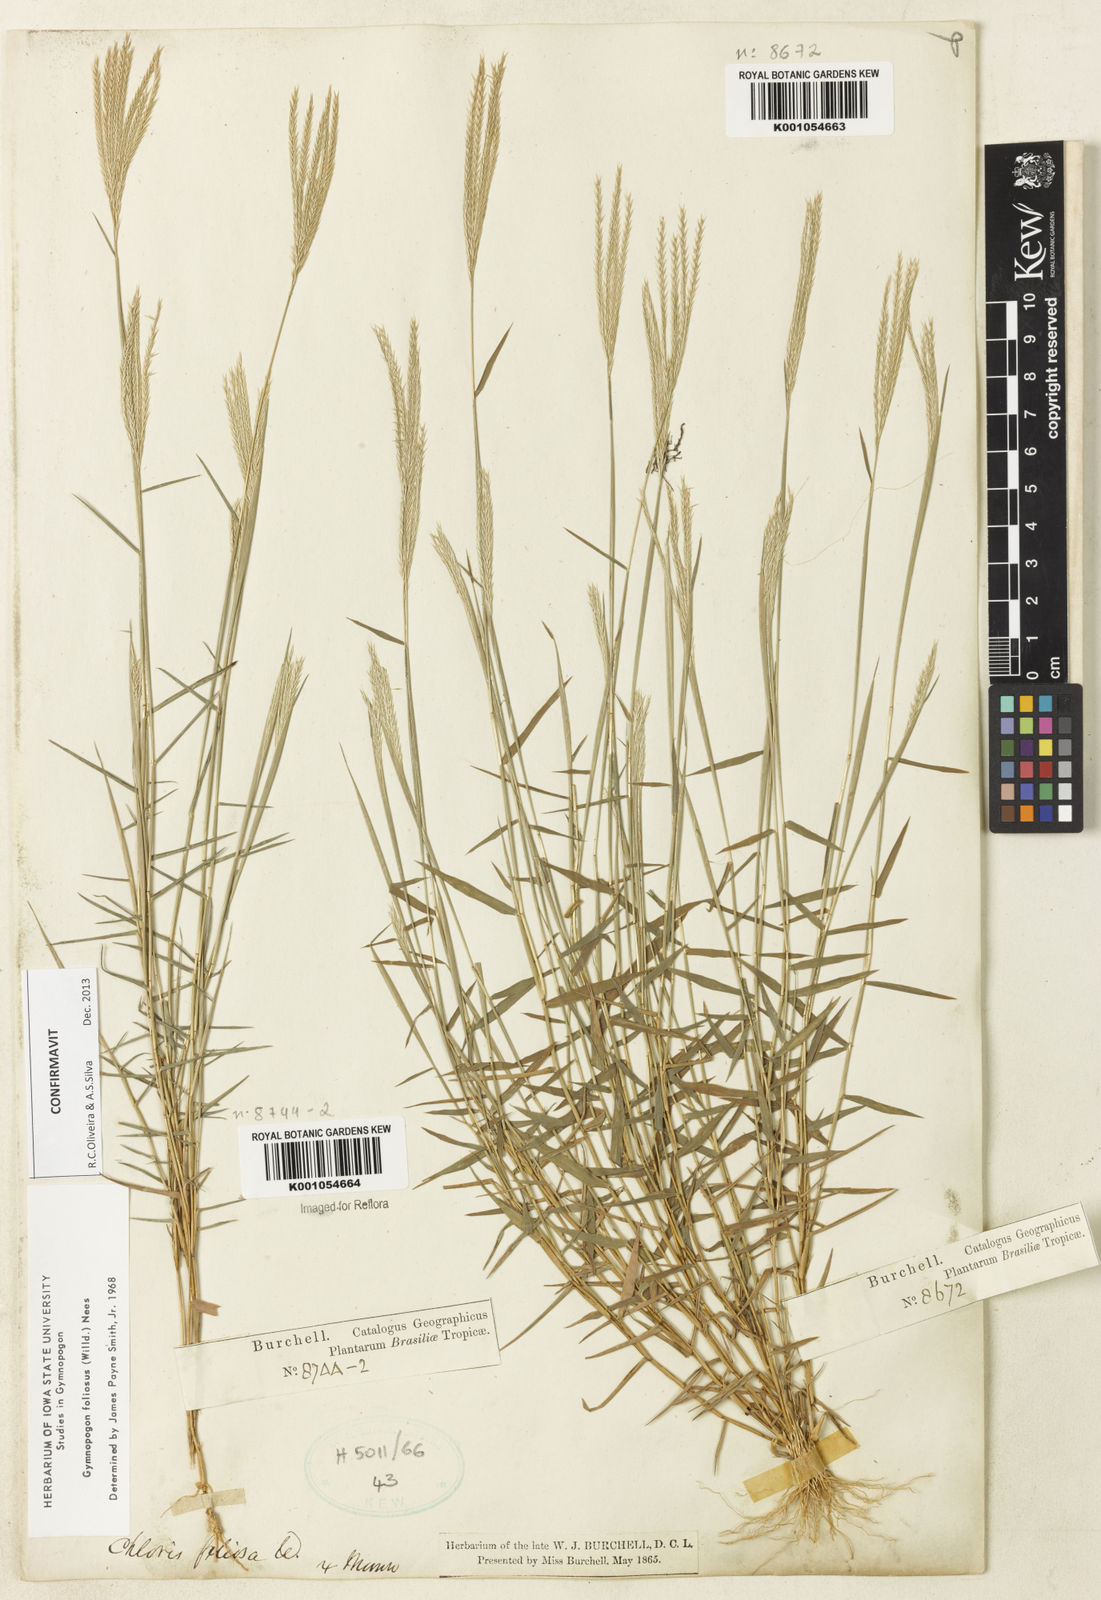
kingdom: Plantae
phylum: Tracheophyta
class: Liliopsida
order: Poales
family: Poaceae
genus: Gymnopogon
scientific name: Gymnopogon foliosus
